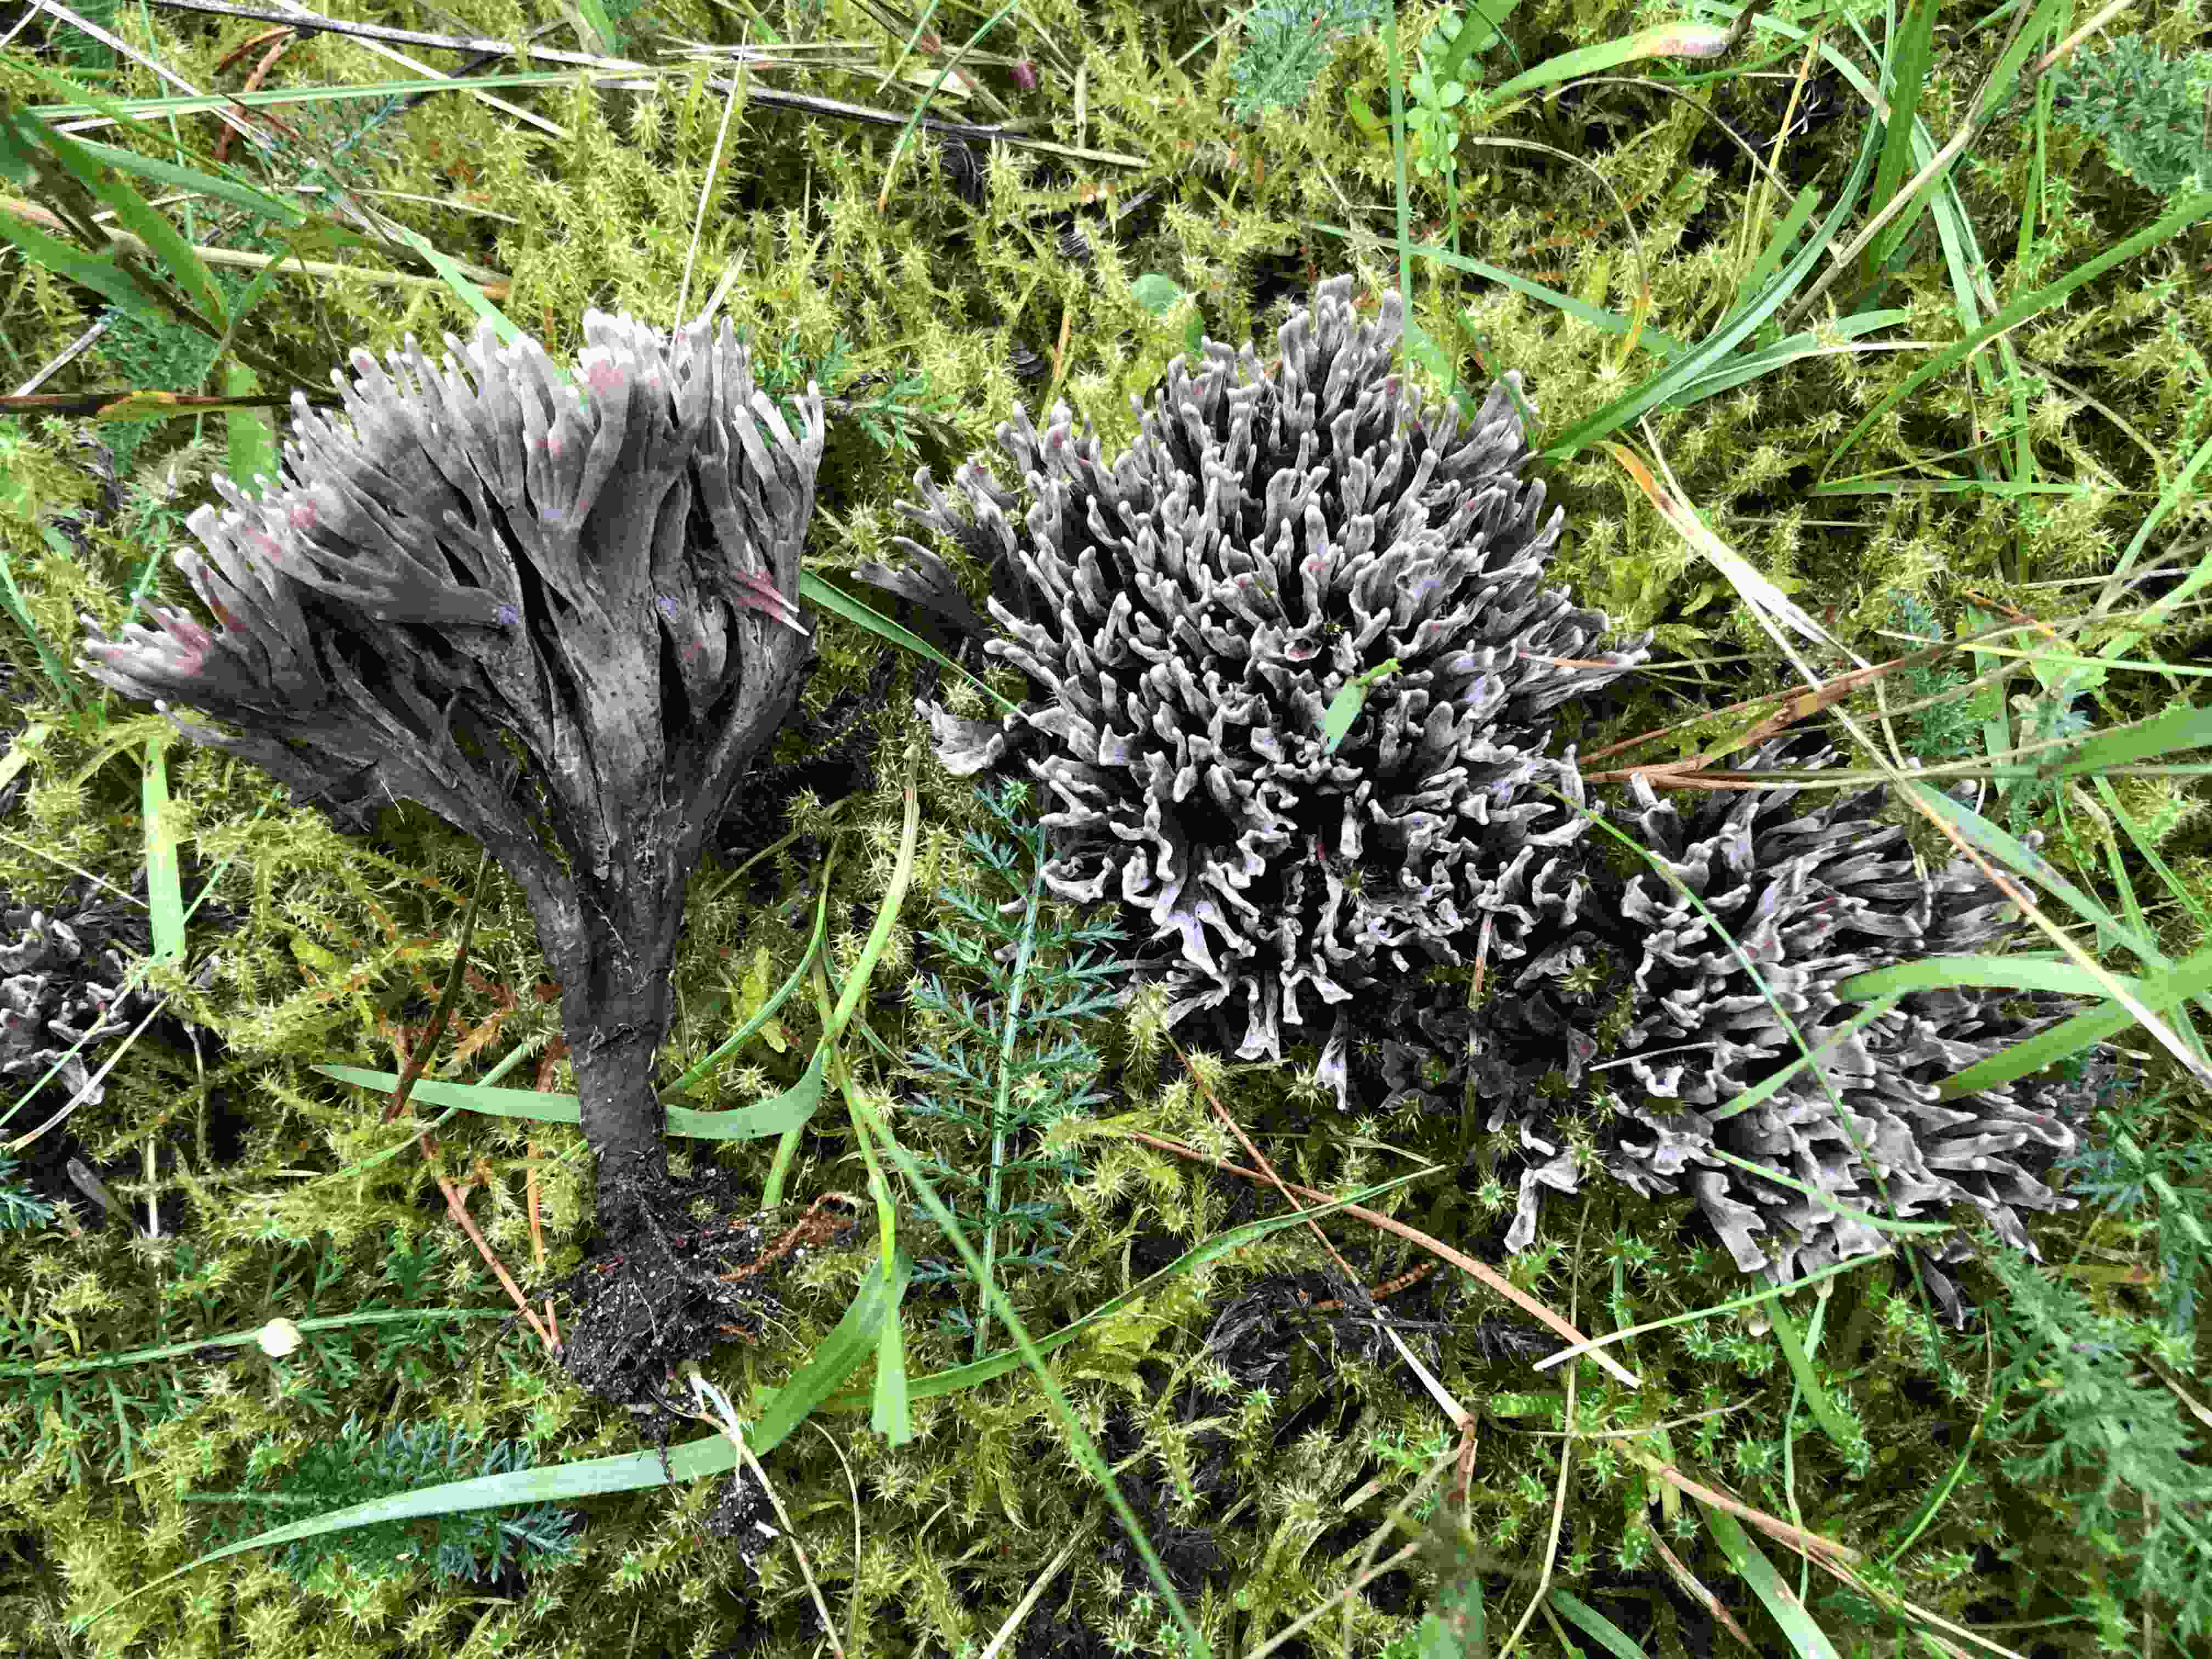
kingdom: Fungi
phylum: Basidiomycota
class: Agaricomycetes
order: Thelephorales
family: Thelephoraceae
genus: Thelephora
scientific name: Thelephora palmata
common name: grenet frynsesvamp
